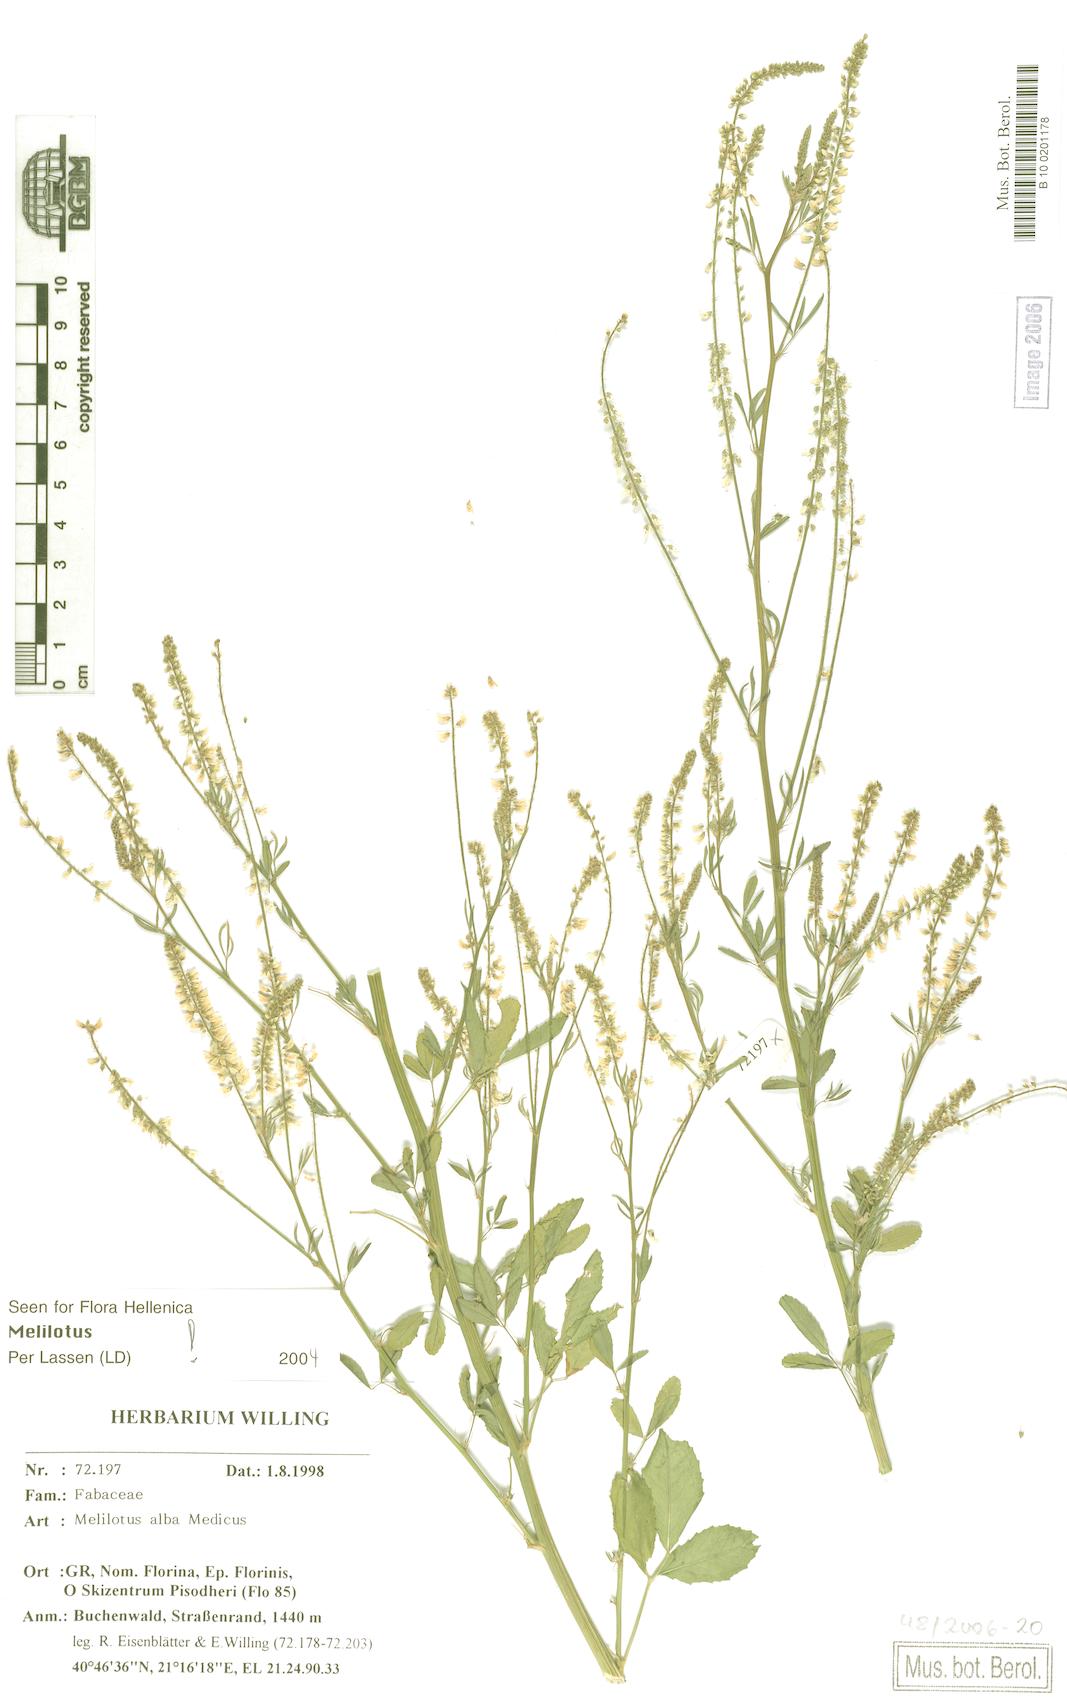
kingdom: Plantae
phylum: Tracheophyta
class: Magnoliopsida
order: Fabales
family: Fabaceae
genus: Melilotus
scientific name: Melilotus albus
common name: White melilot
